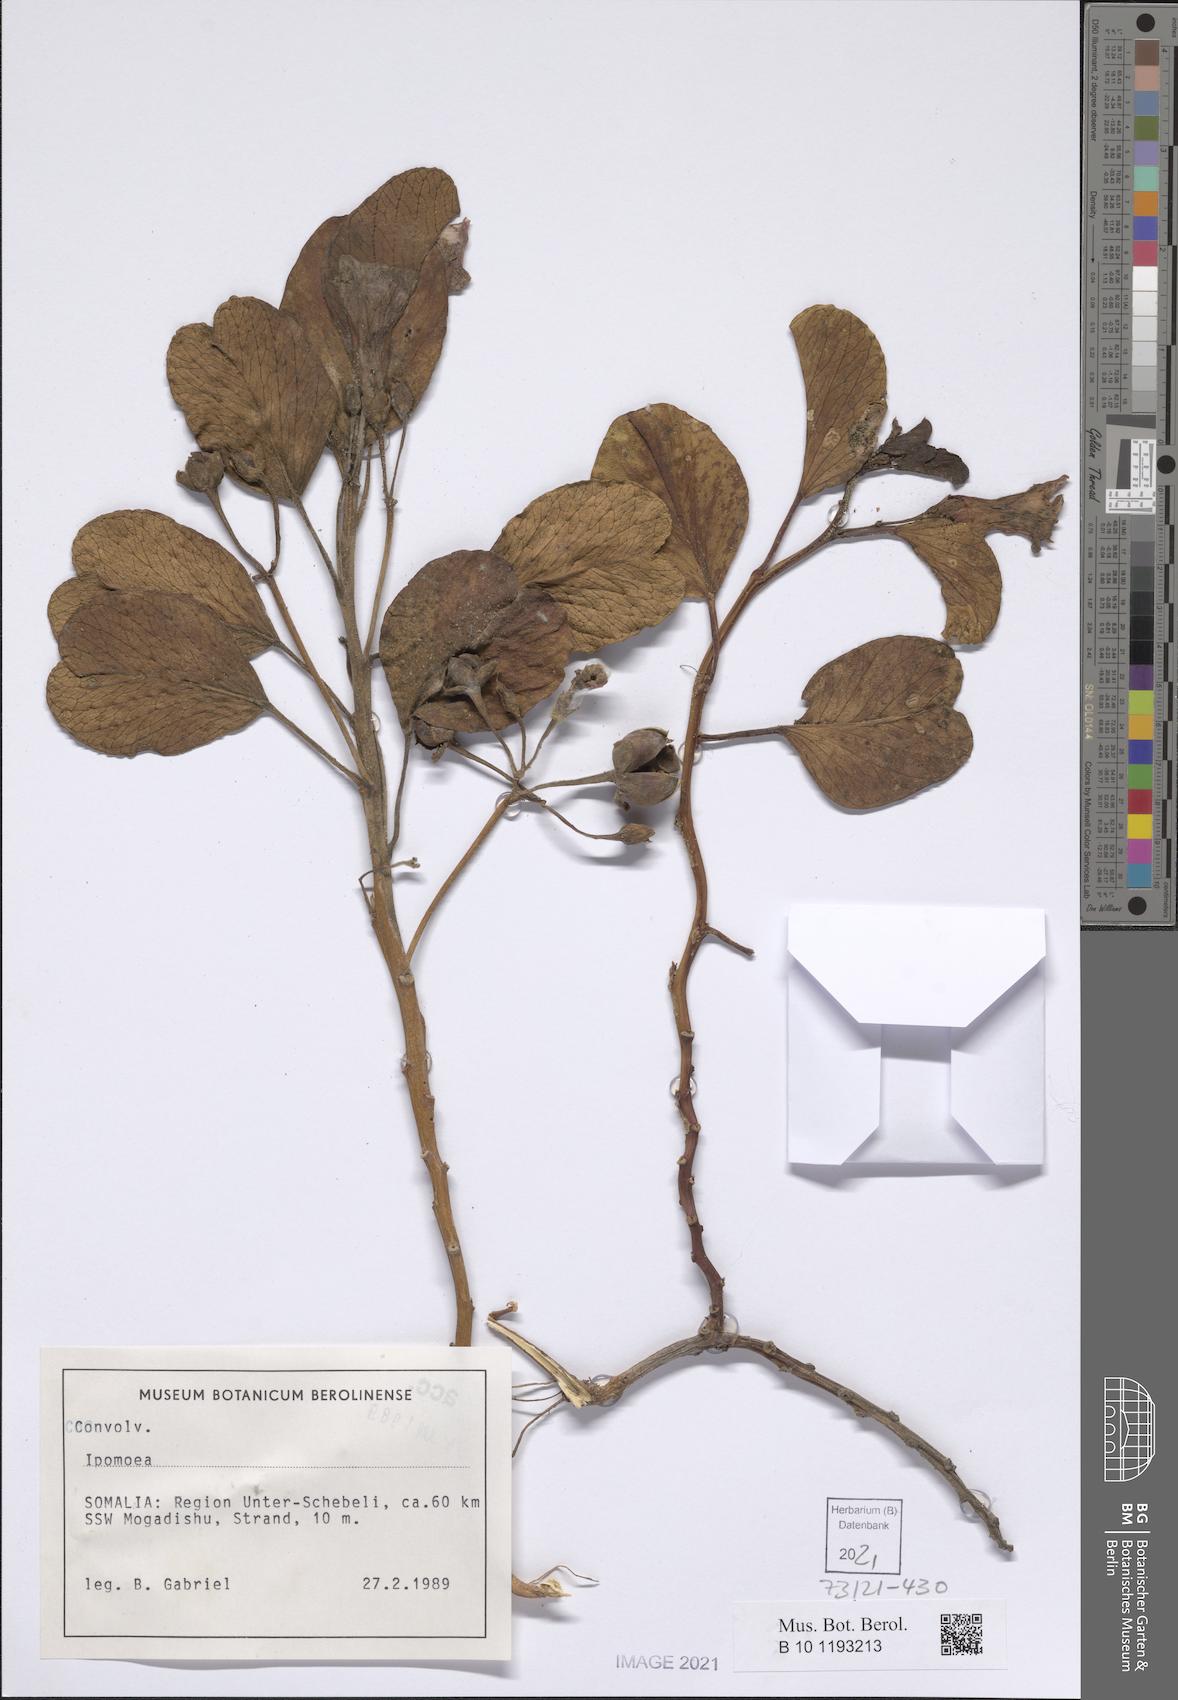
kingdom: Plantae
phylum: Tracheophyta
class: Magnoliopsida
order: Solanales
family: Convolvulaceae
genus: Ipomoea
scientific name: Ipomoea pes-caprae
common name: Beach morning glory
